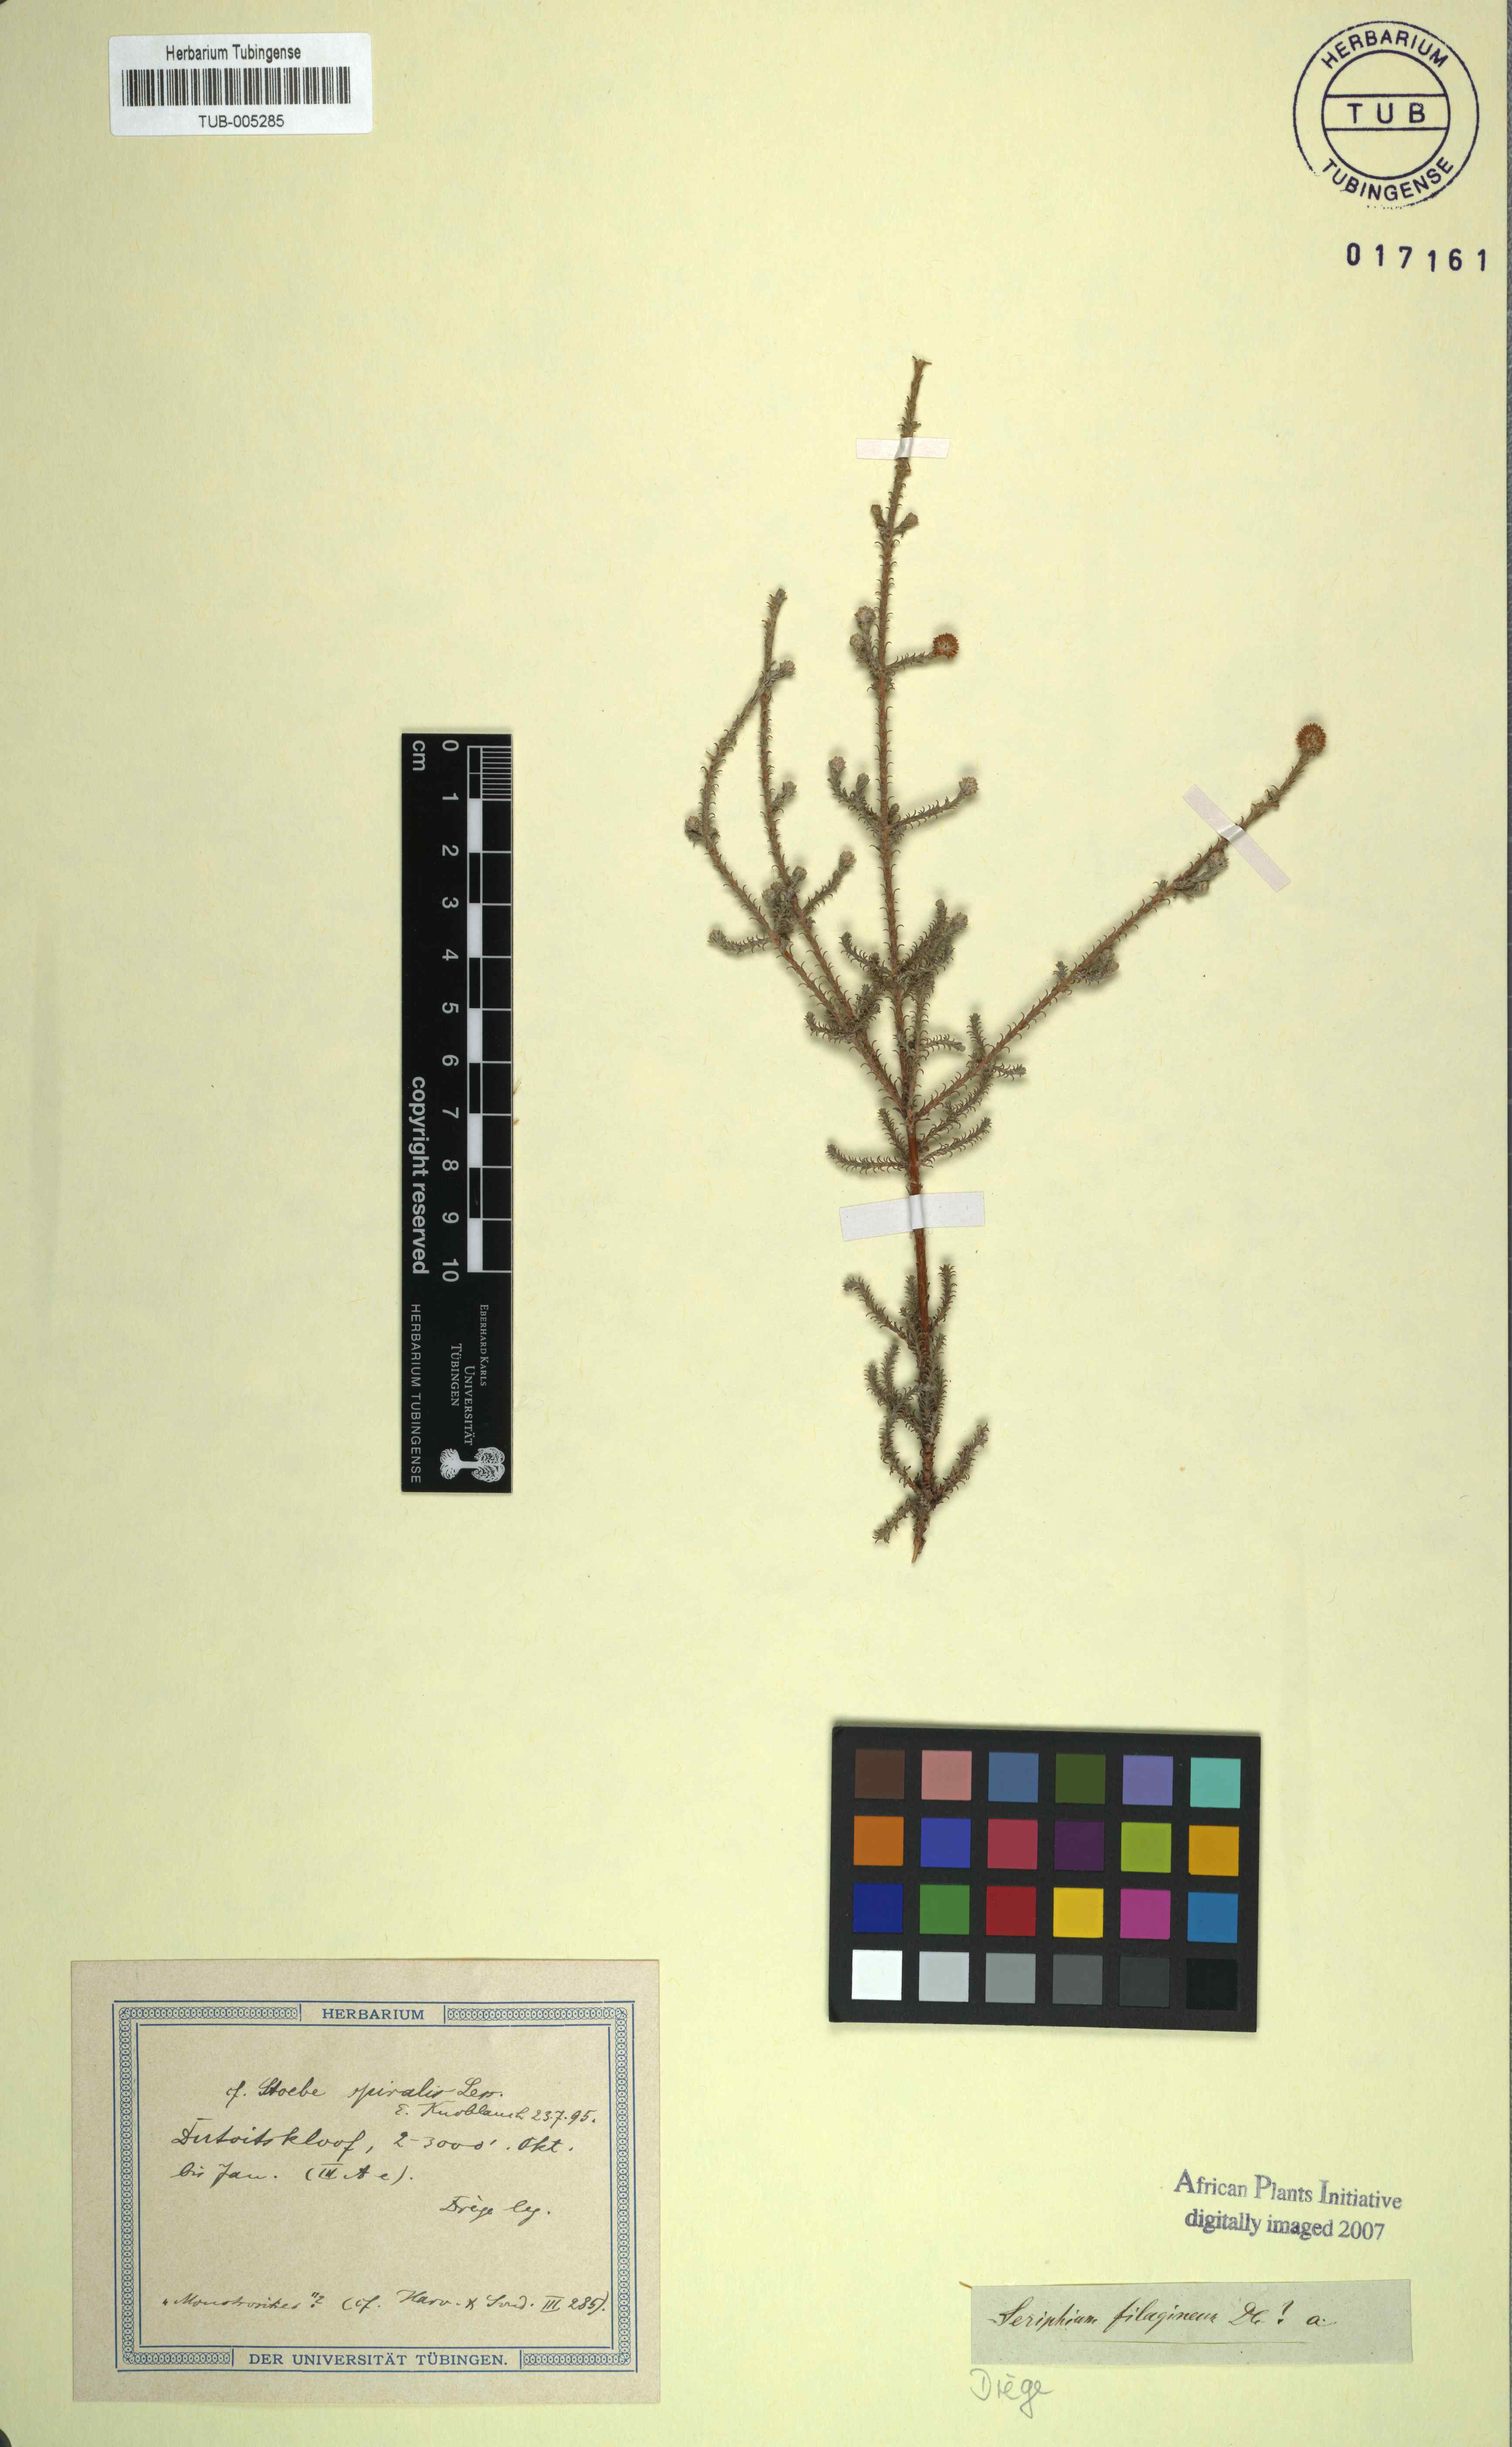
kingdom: Plantae
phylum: Tracheophyta
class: Magnoliopsida
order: Asterales
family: Asteraceae
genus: Seriphium
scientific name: Seriphium spirale
